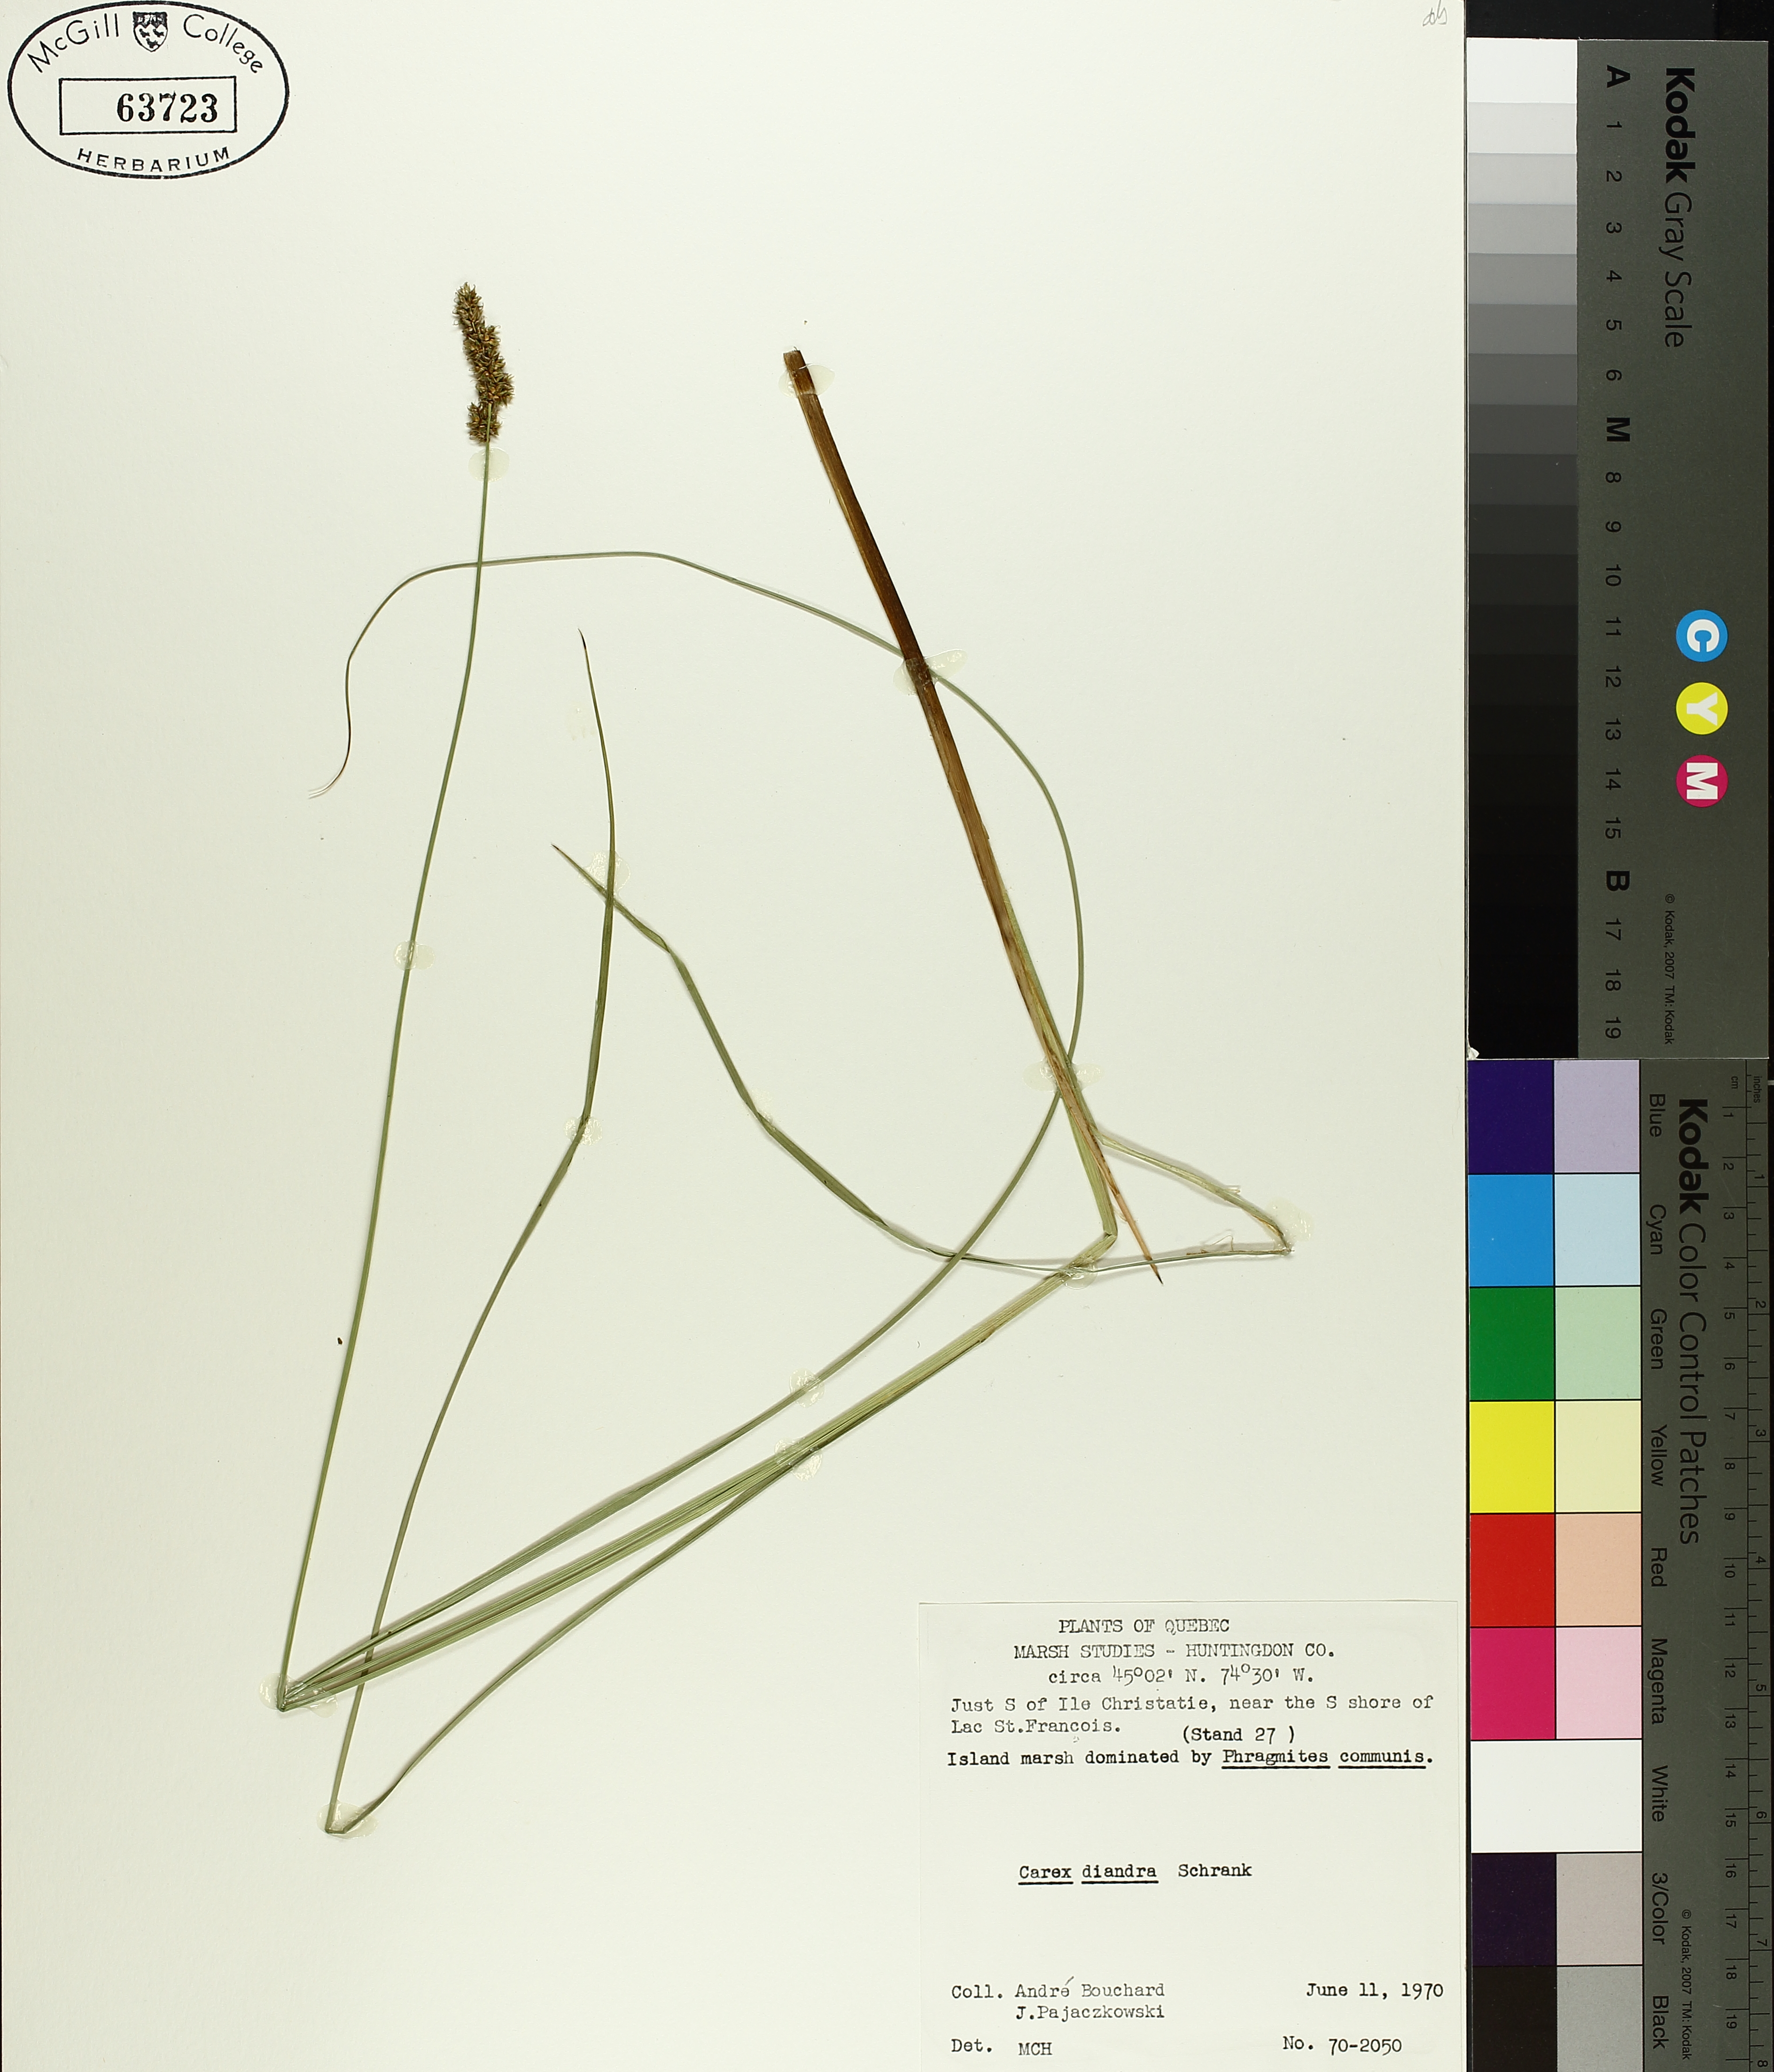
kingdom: Plantae
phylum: Tracheophyta
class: Liliopsida
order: Poales
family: Cyperaceae
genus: Carex
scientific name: Carex diandra
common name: Lesser tussock-sedge
